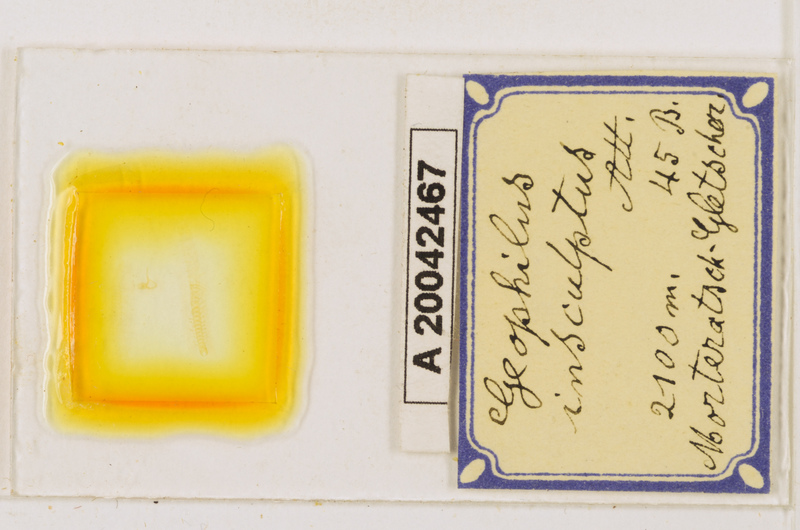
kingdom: Animalia
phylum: Arthropoda
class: Chilopoda
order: Geophilomorpha
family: Geophilidae
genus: Geophilus
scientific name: Geophilus insculptus
